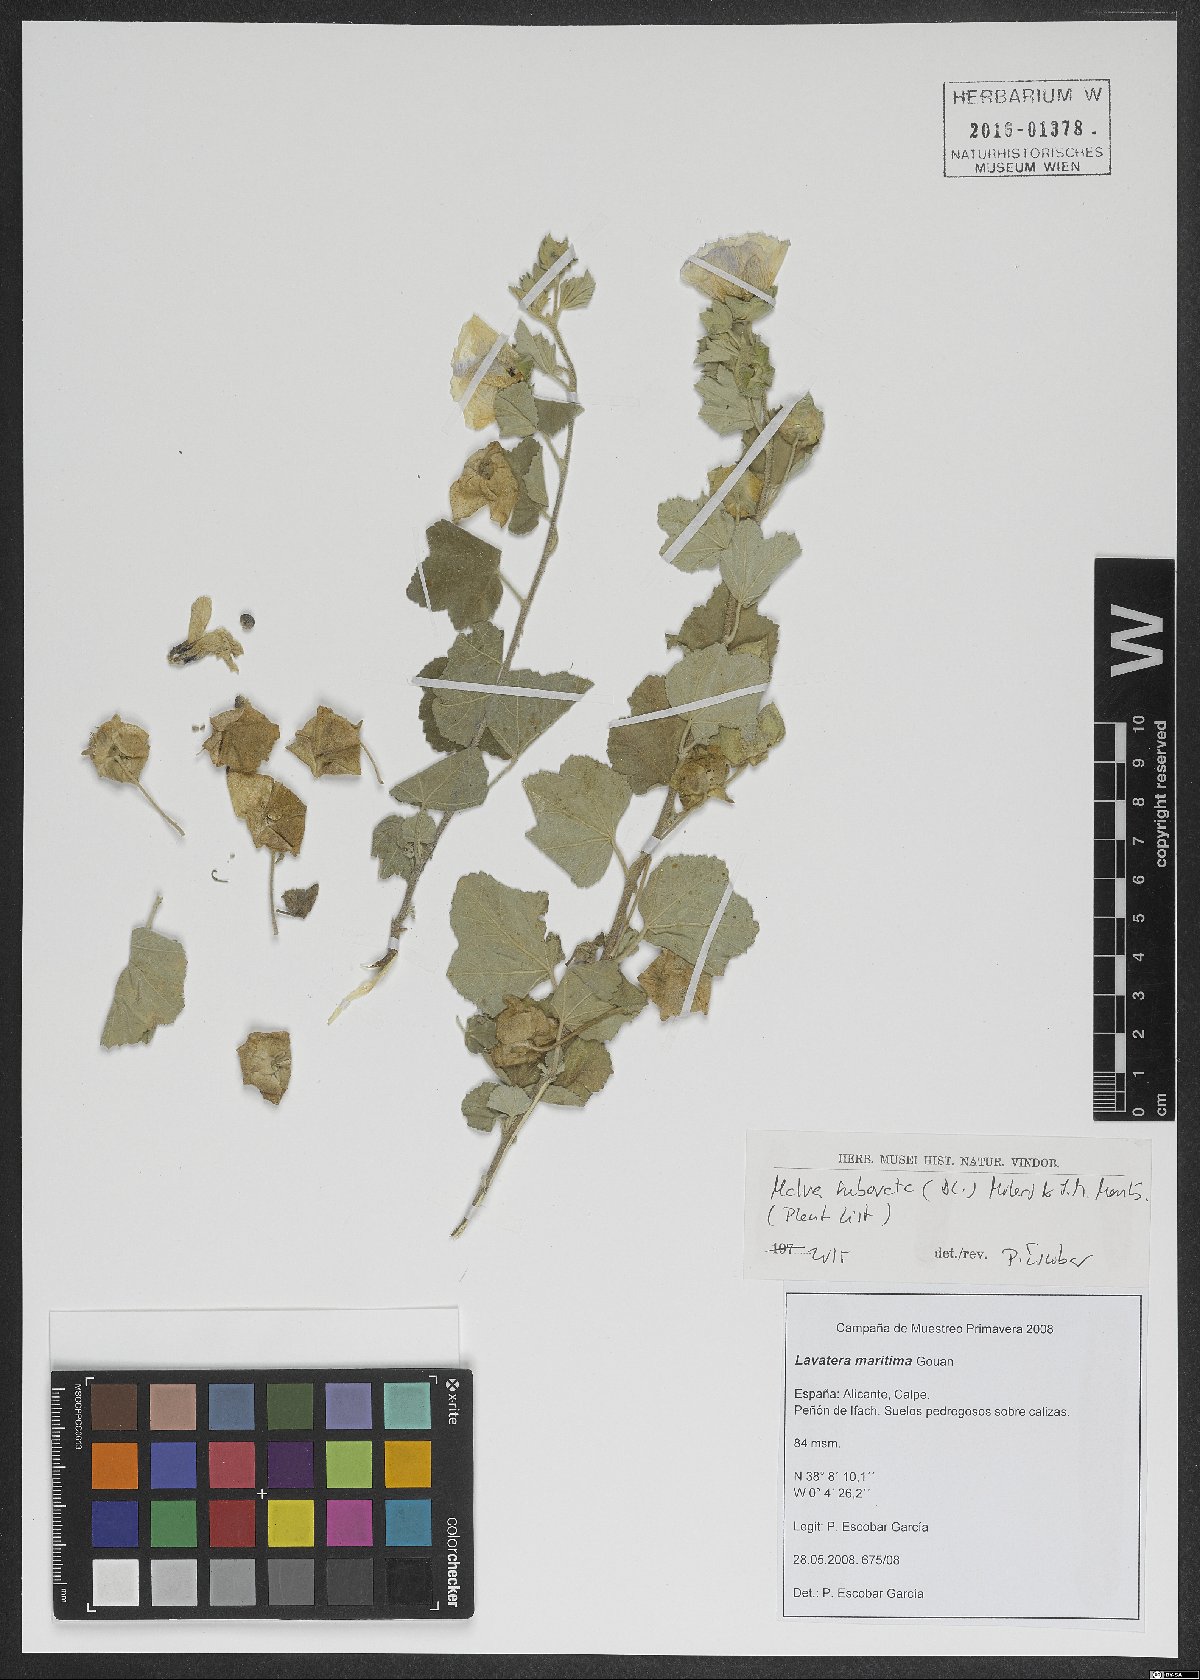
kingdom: Plantae
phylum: Tracheophyta
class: Magnoliopsida
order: Malvales
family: Malvaceae
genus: Malva
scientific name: Malva subovata
